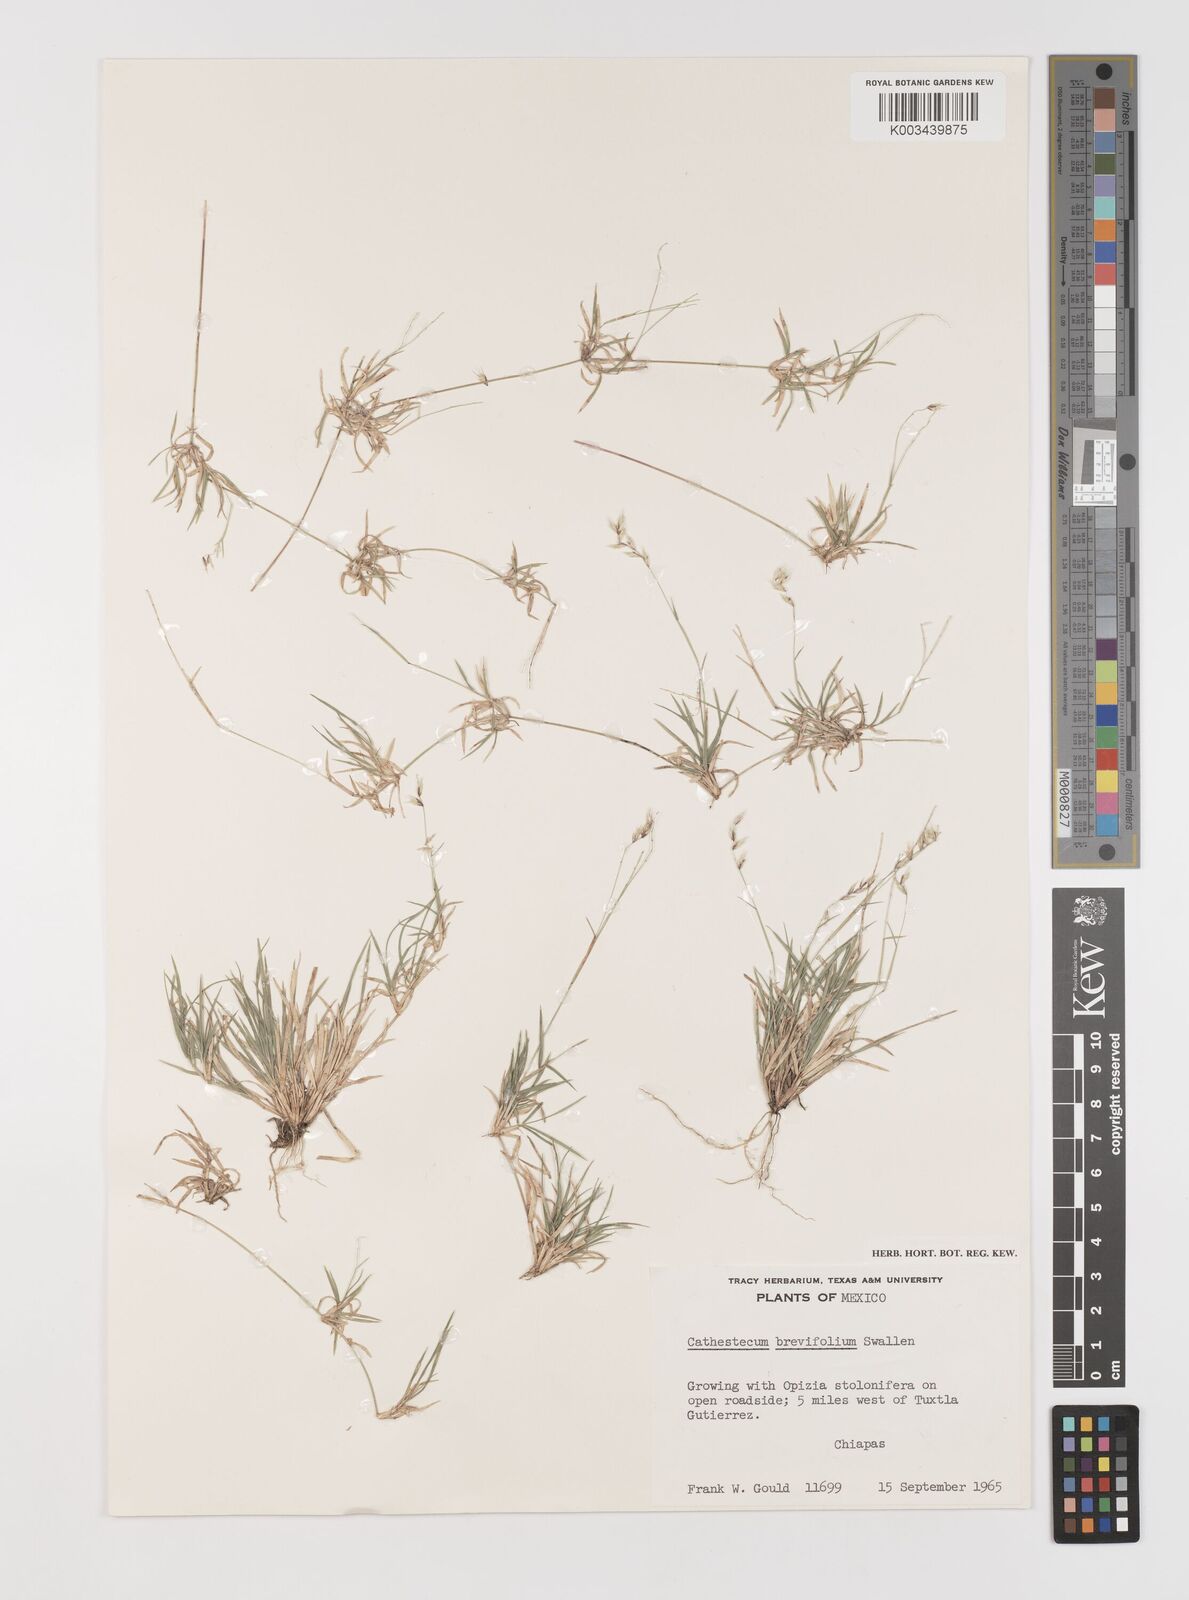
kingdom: Plantae
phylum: Tracheophyta
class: Liliopsida
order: Poales
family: Poaceae
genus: Bouteloua
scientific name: Bouteloua diversispicula
